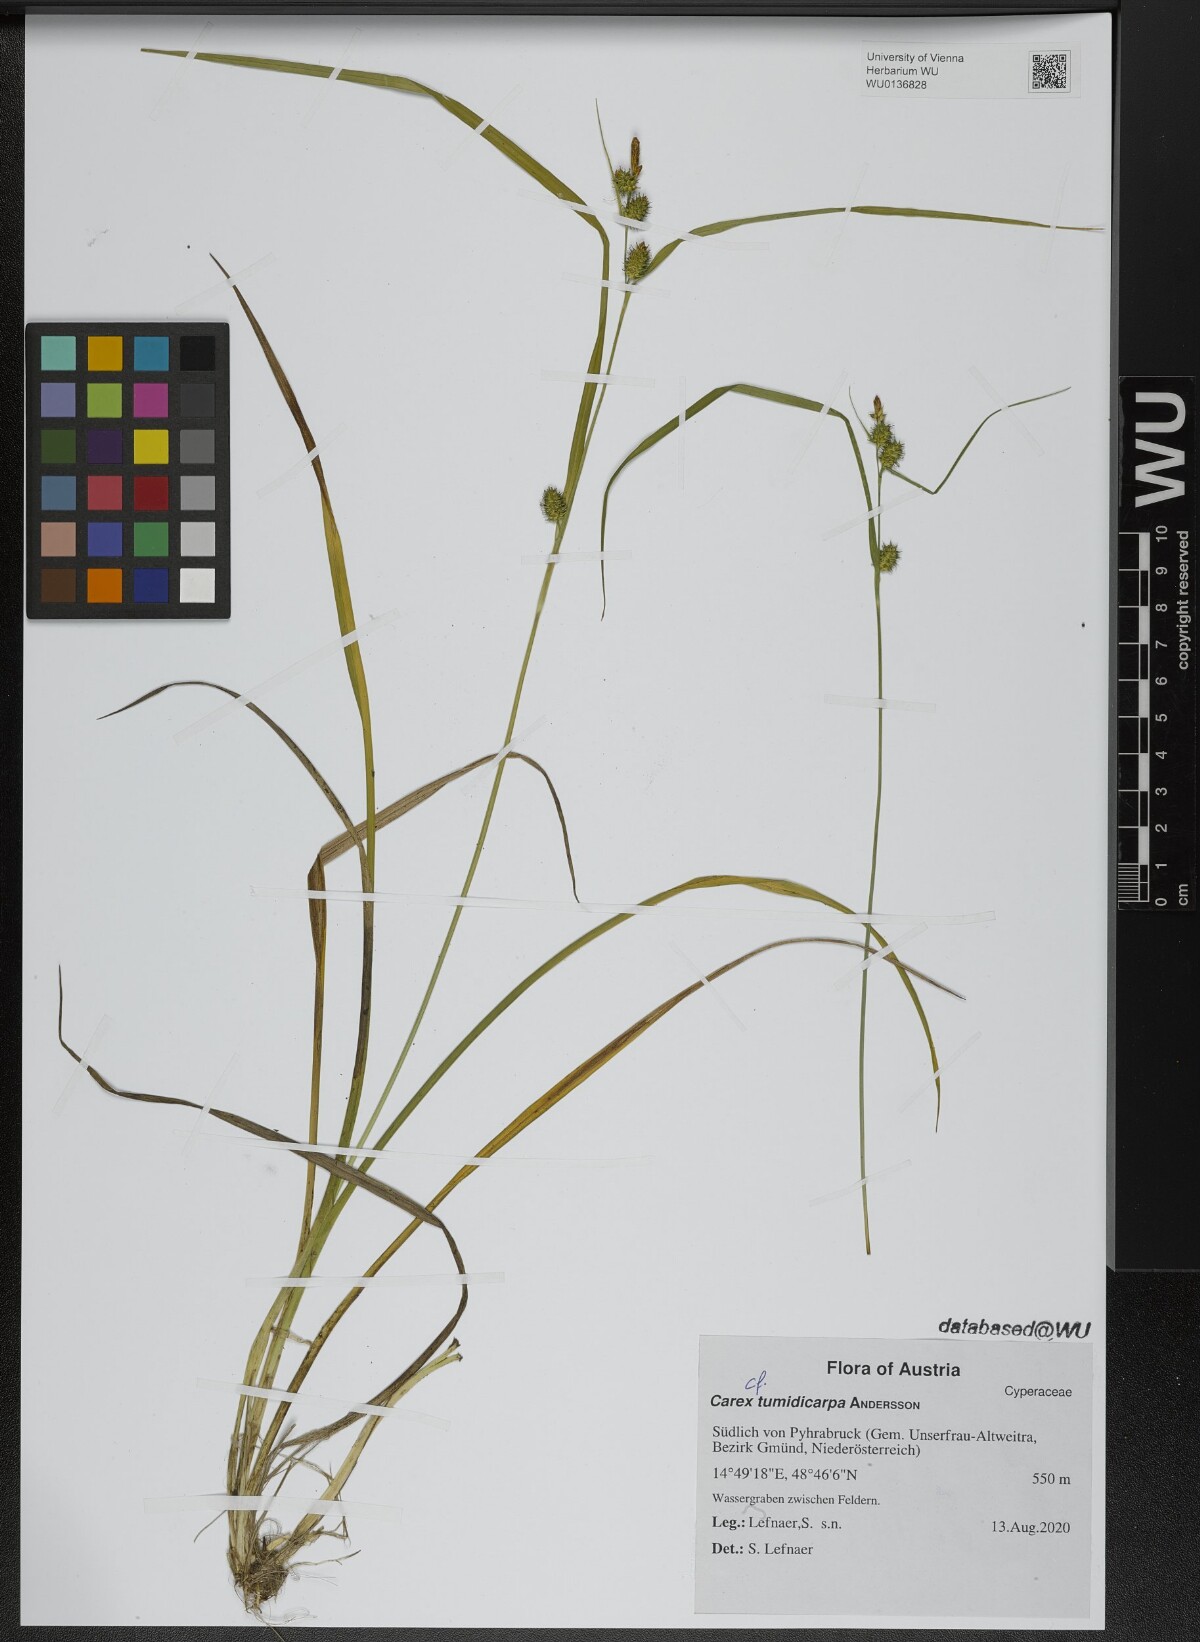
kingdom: Plantae
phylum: Tracheophyta
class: Liliopsida
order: Poales
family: Cyperaceae
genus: Carex
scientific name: Carex demissa
